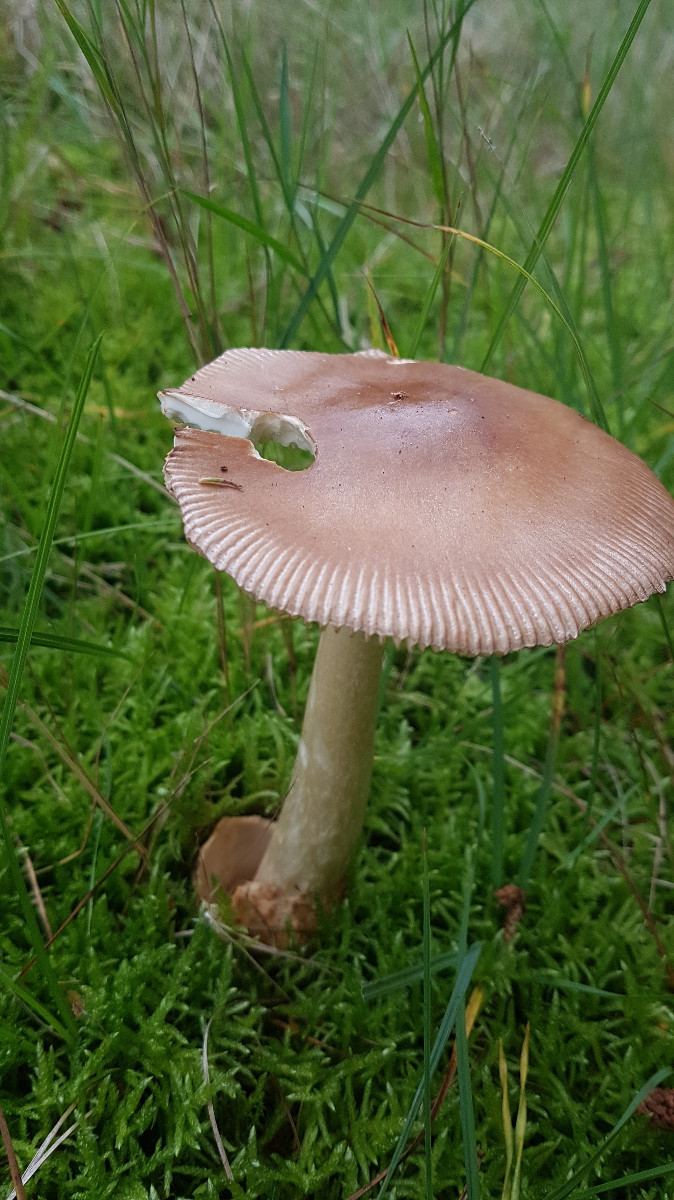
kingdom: Fungi
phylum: Basidiomycota
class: Agaricomycetes
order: Agaricales
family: Amanitaceae
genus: Amanita
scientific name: Amanita fulva
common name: brun kam-fluesvamp
